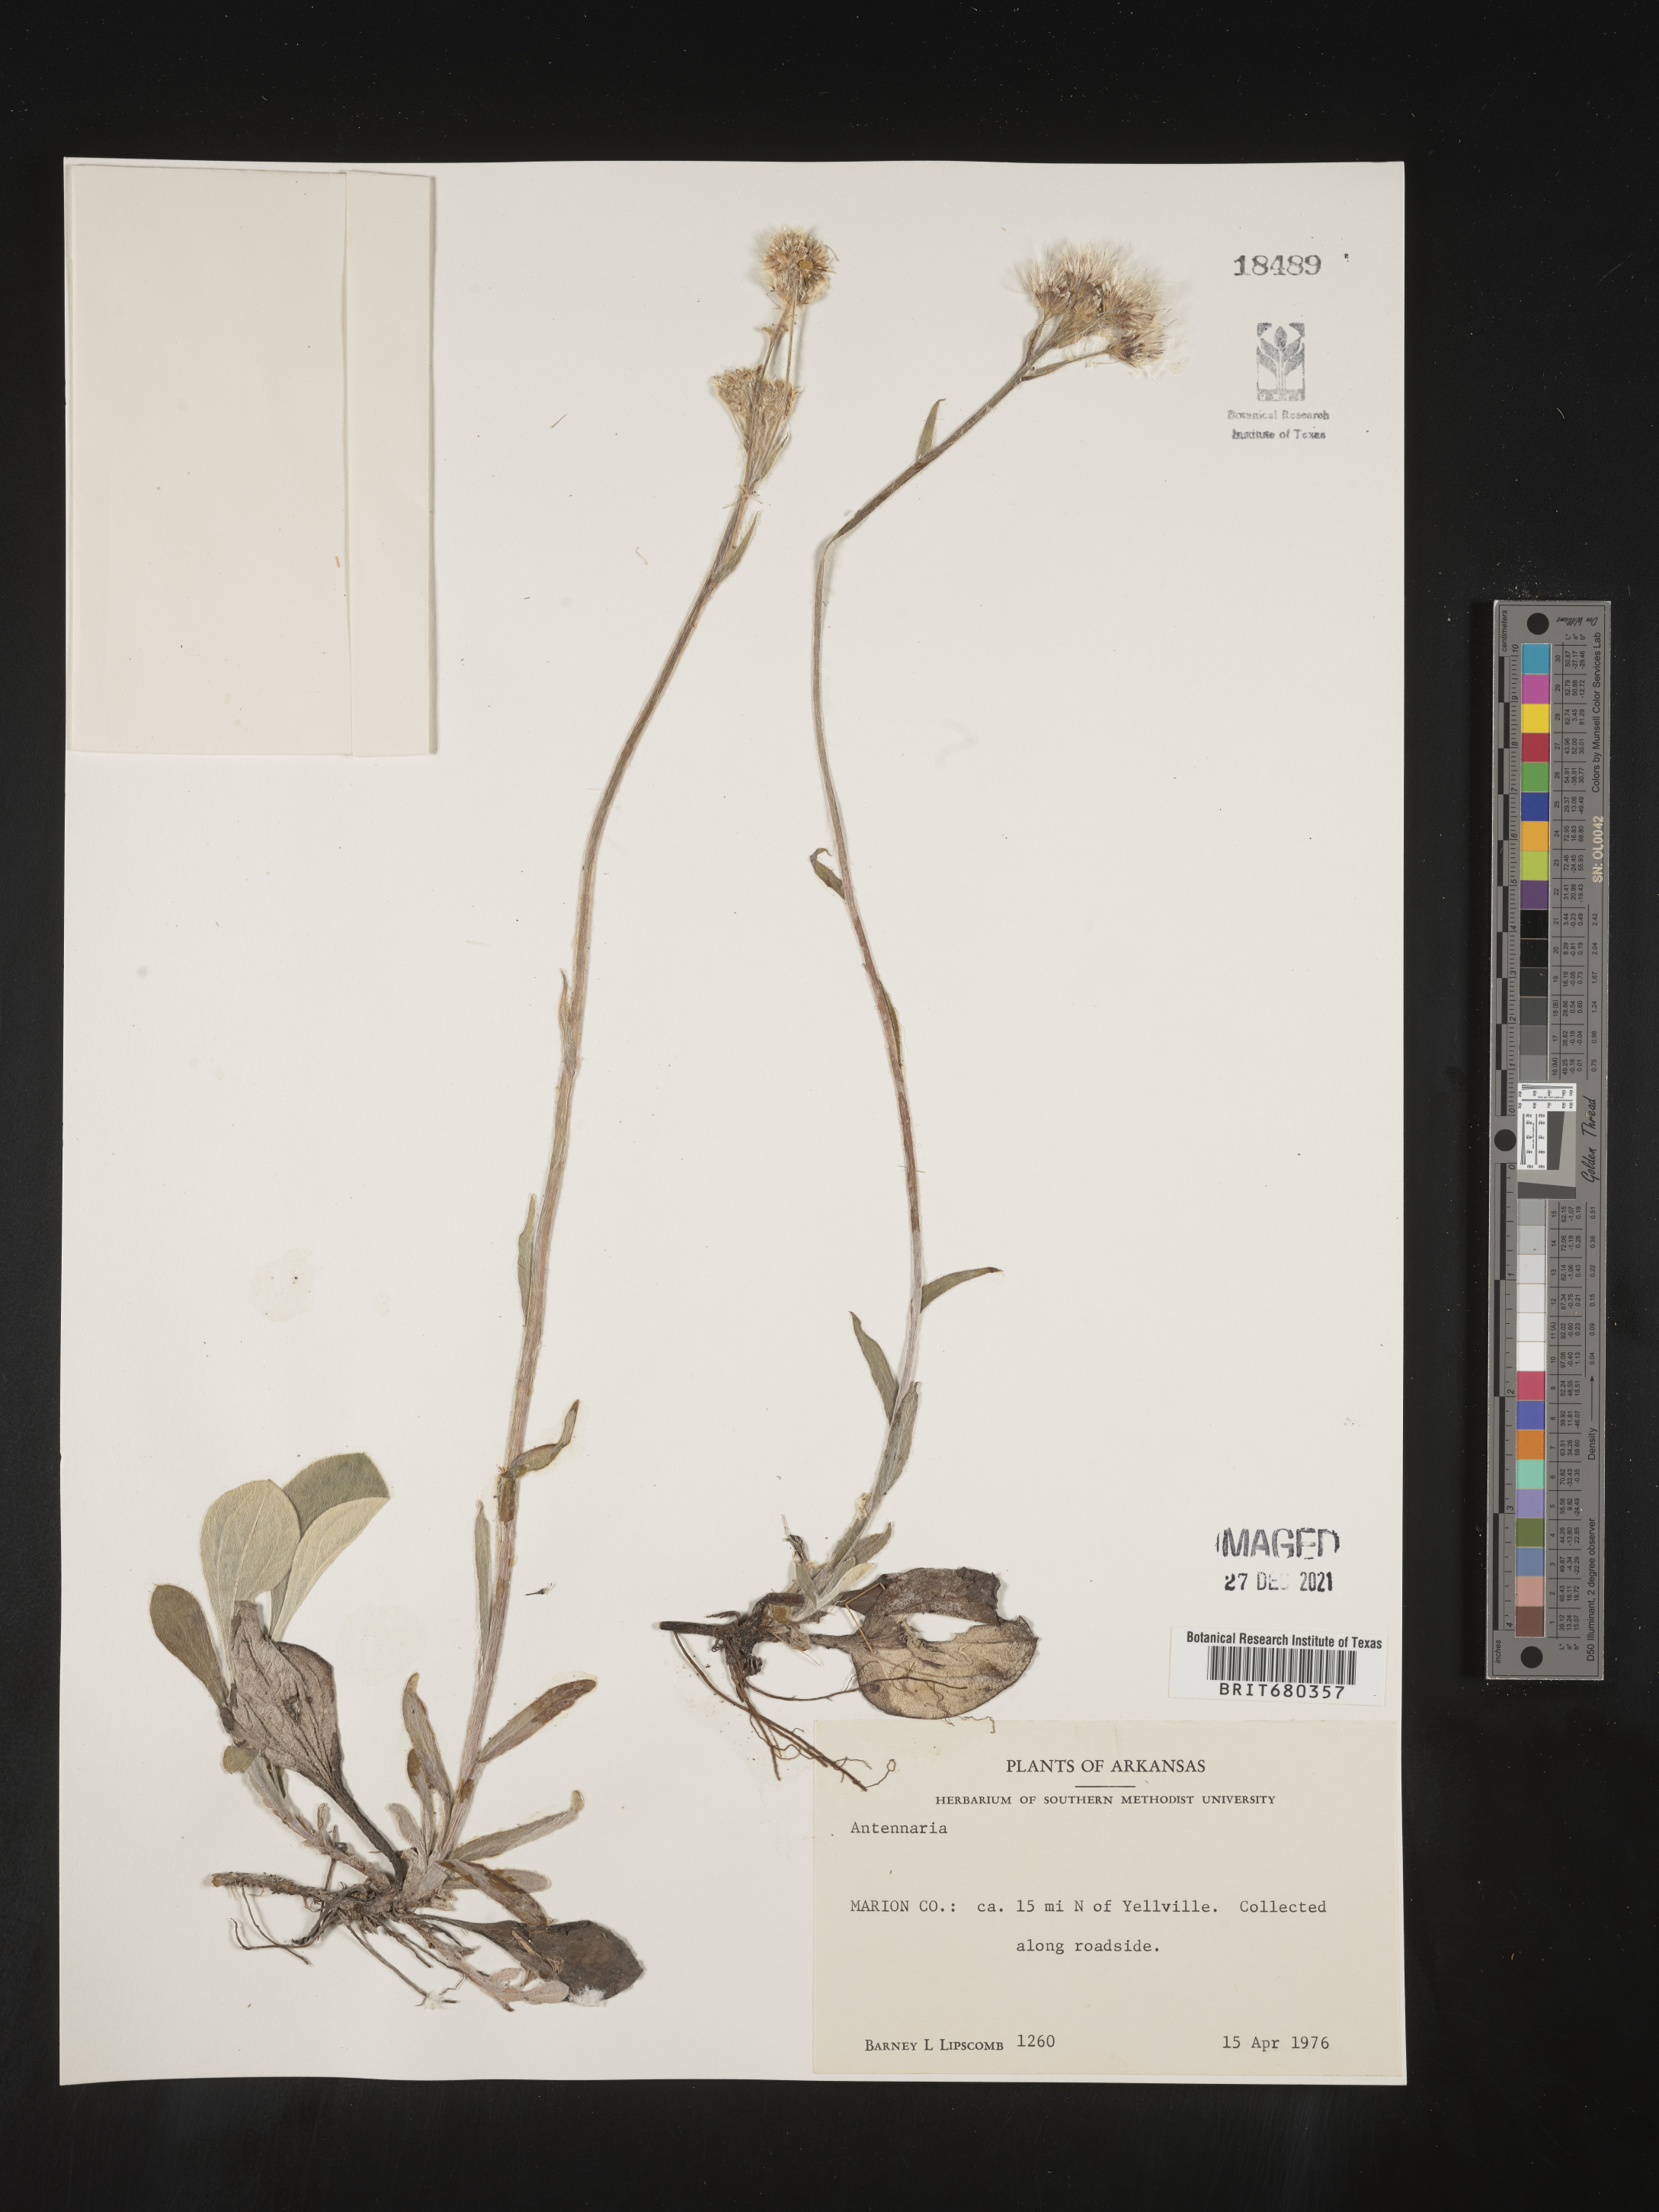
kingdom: Plantae
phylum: Tracheophyta
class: Magnoliopsida
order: Asterales
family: Asteraceae
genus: Antennaria
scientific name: Antennaria
